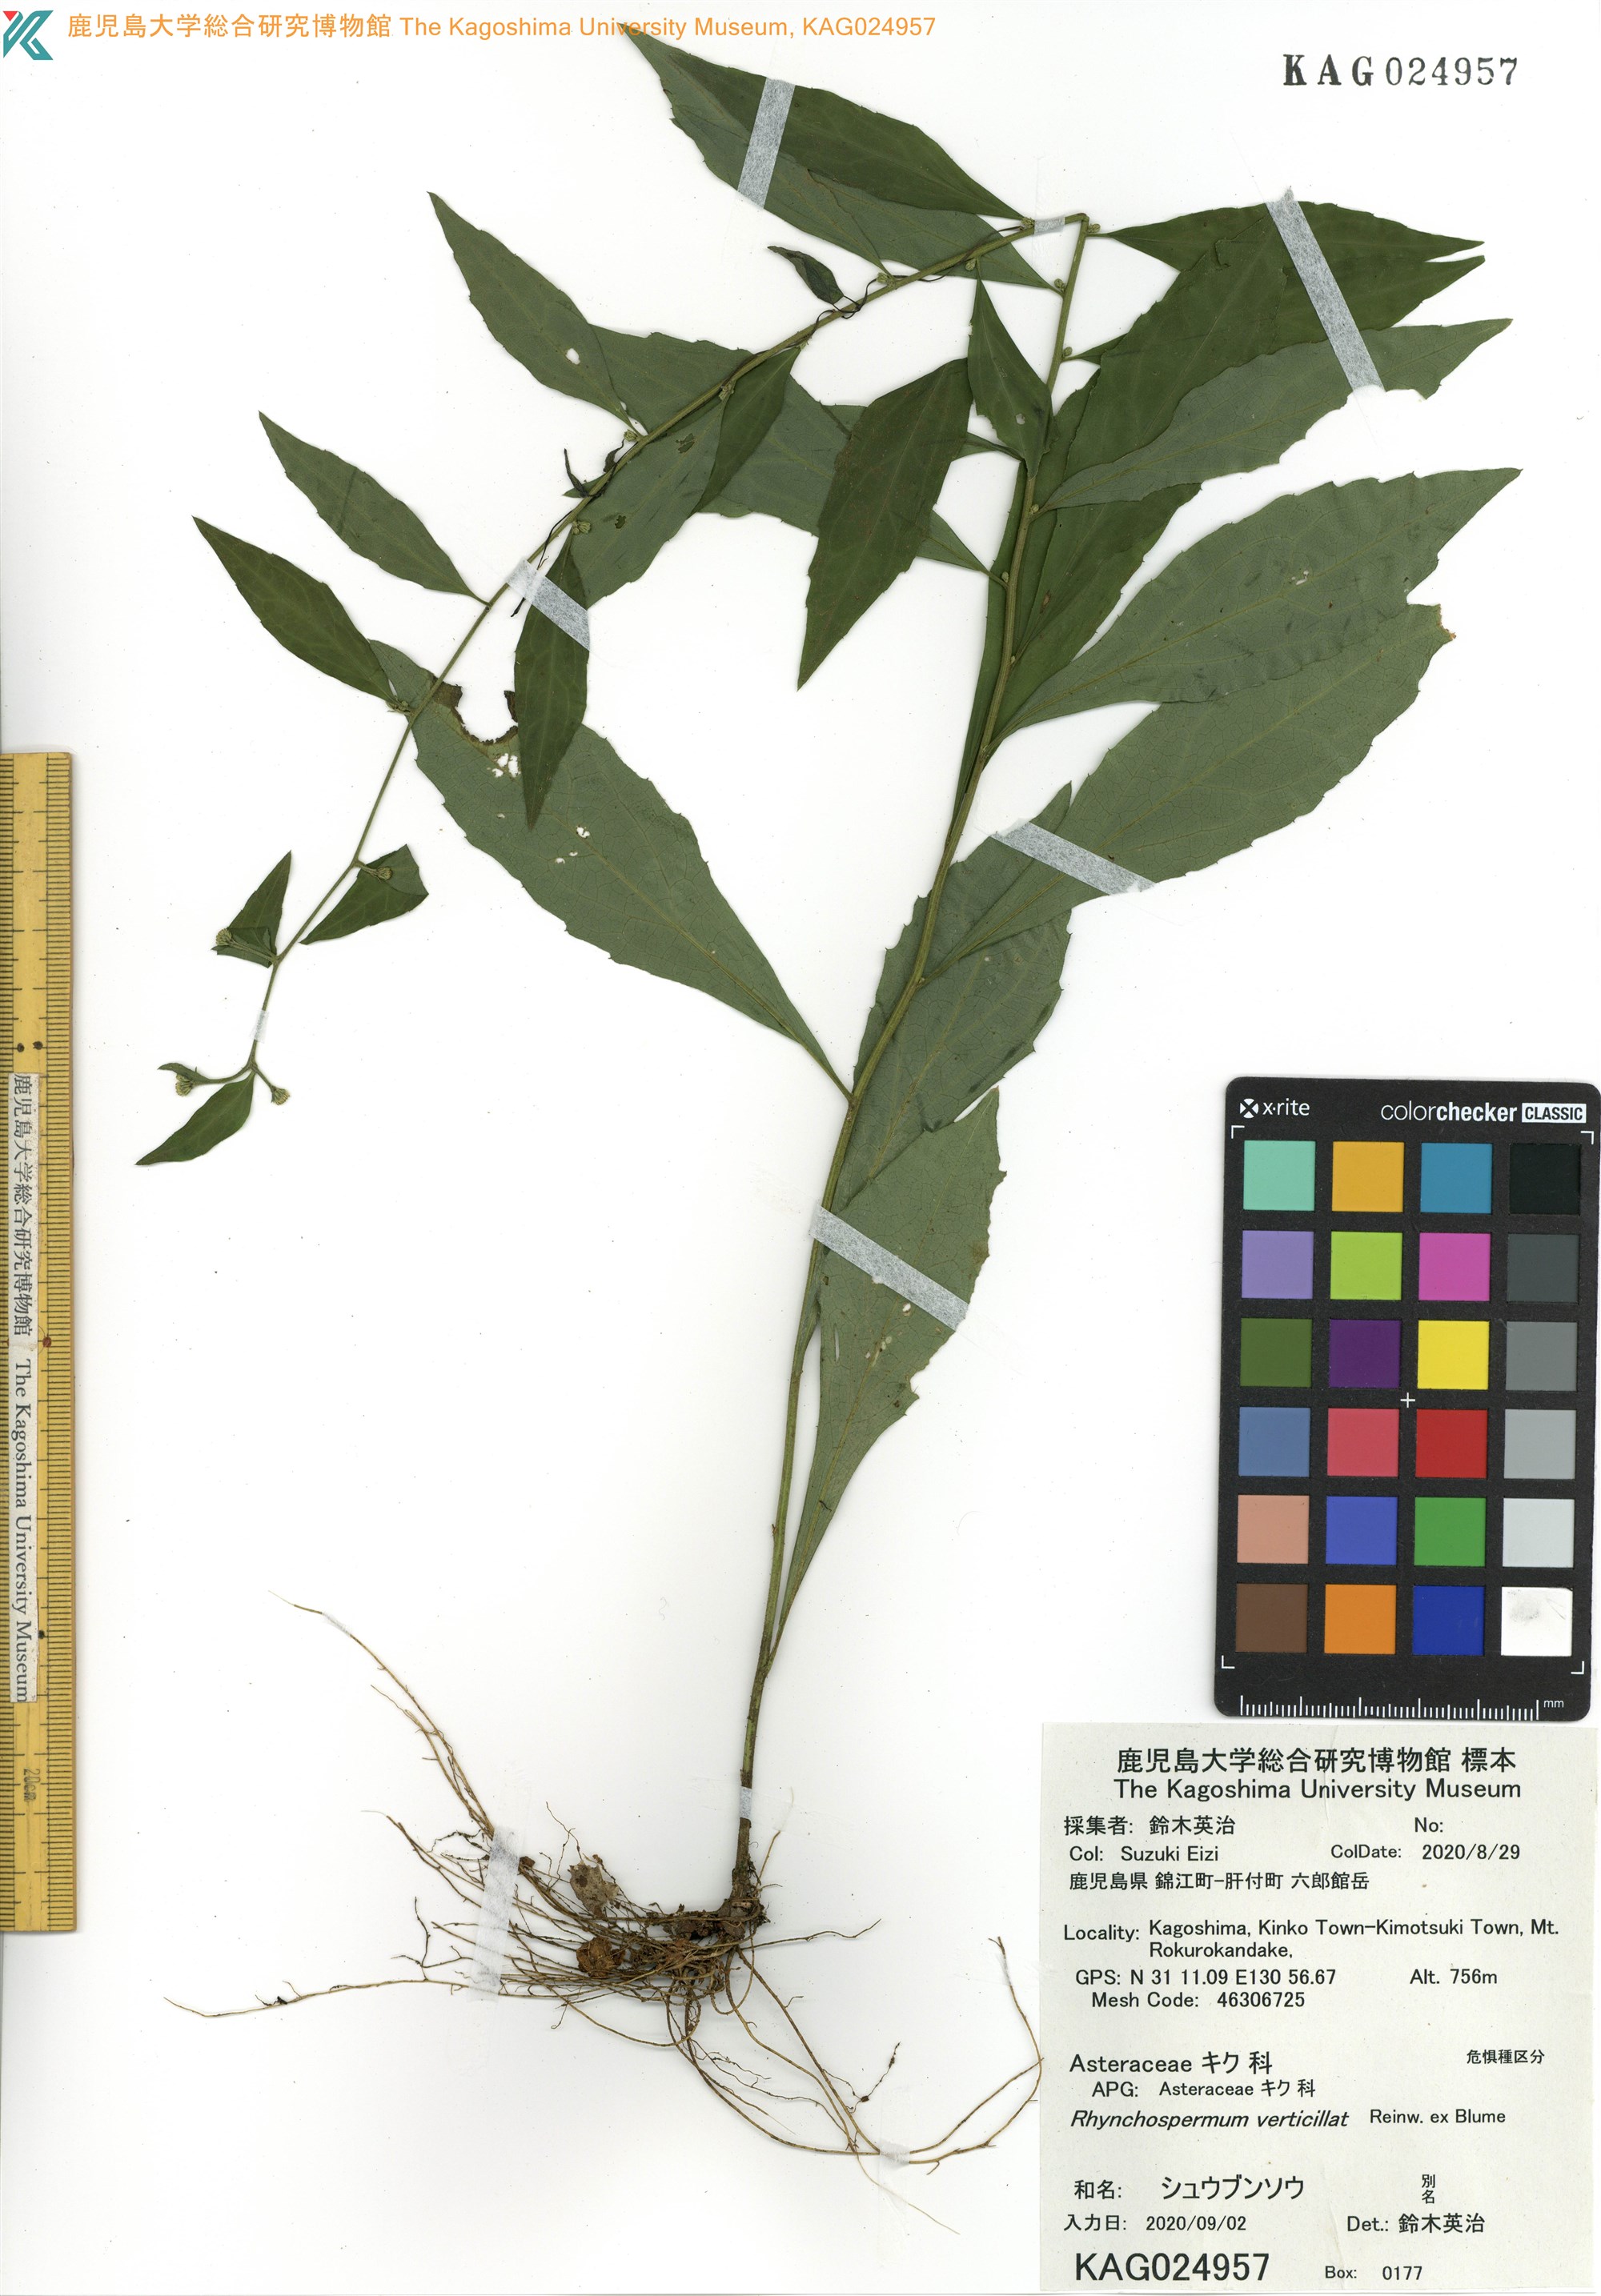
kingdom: Plantae
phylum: Tracheophyta
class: Magnoliopsida
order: Asterales
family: Asteraceae
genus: Rhynchospermum
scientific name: Rhynchospermum verticillatum
